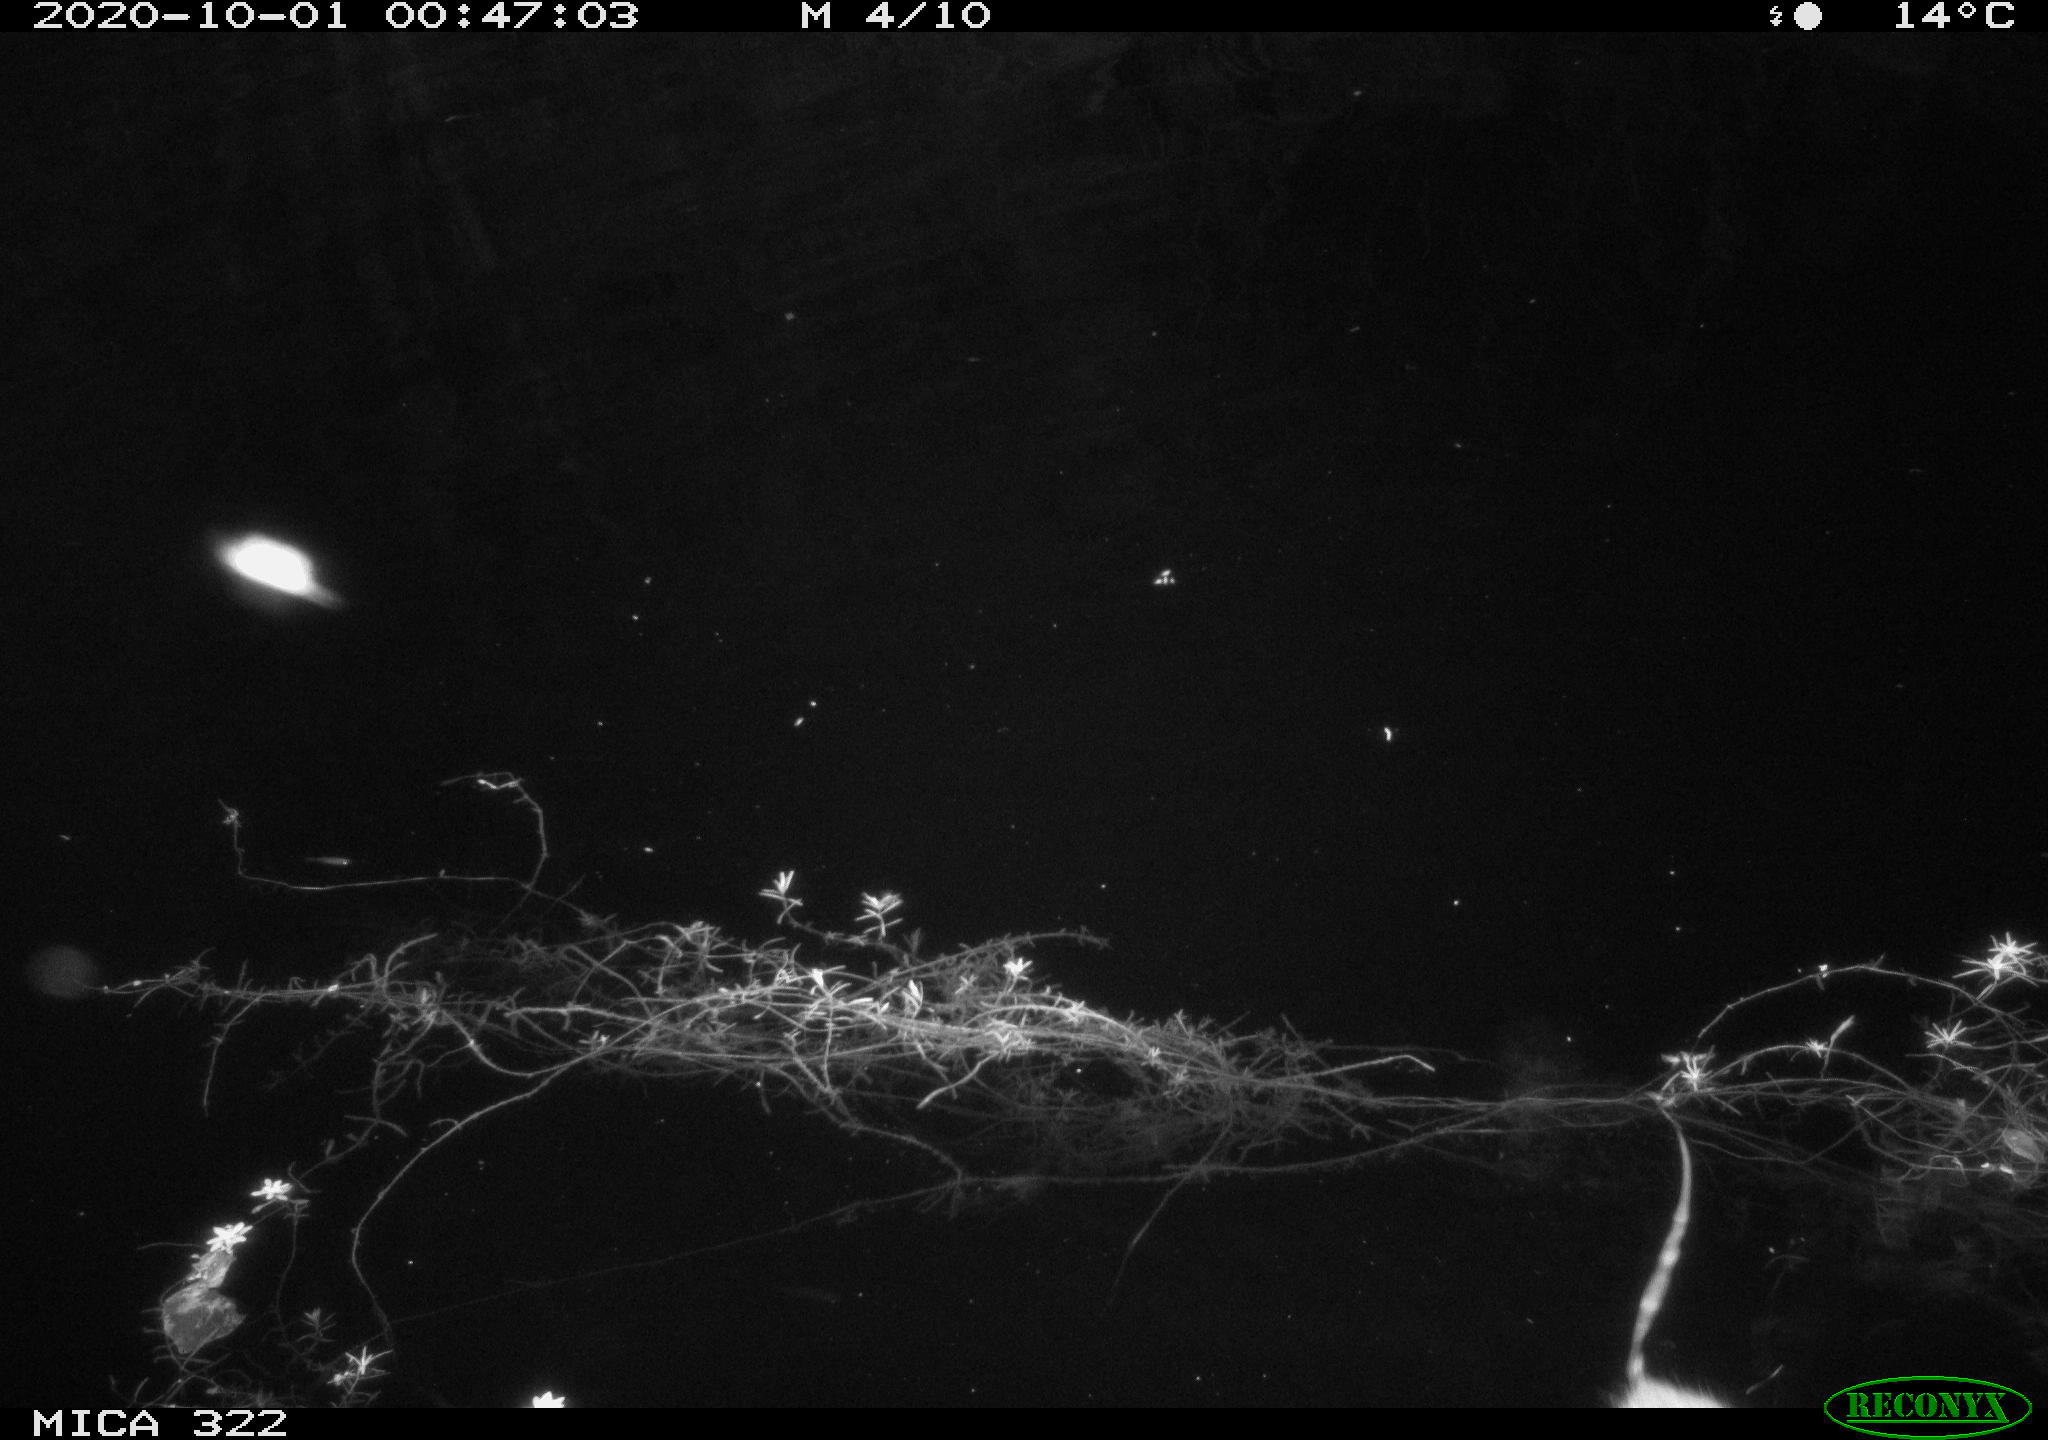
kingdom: Animalia
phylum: Chordata
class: Mammalia
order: Rodentia
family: Muridae
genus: Rattus
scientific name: Rattus norvegicus
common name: Brown rat
